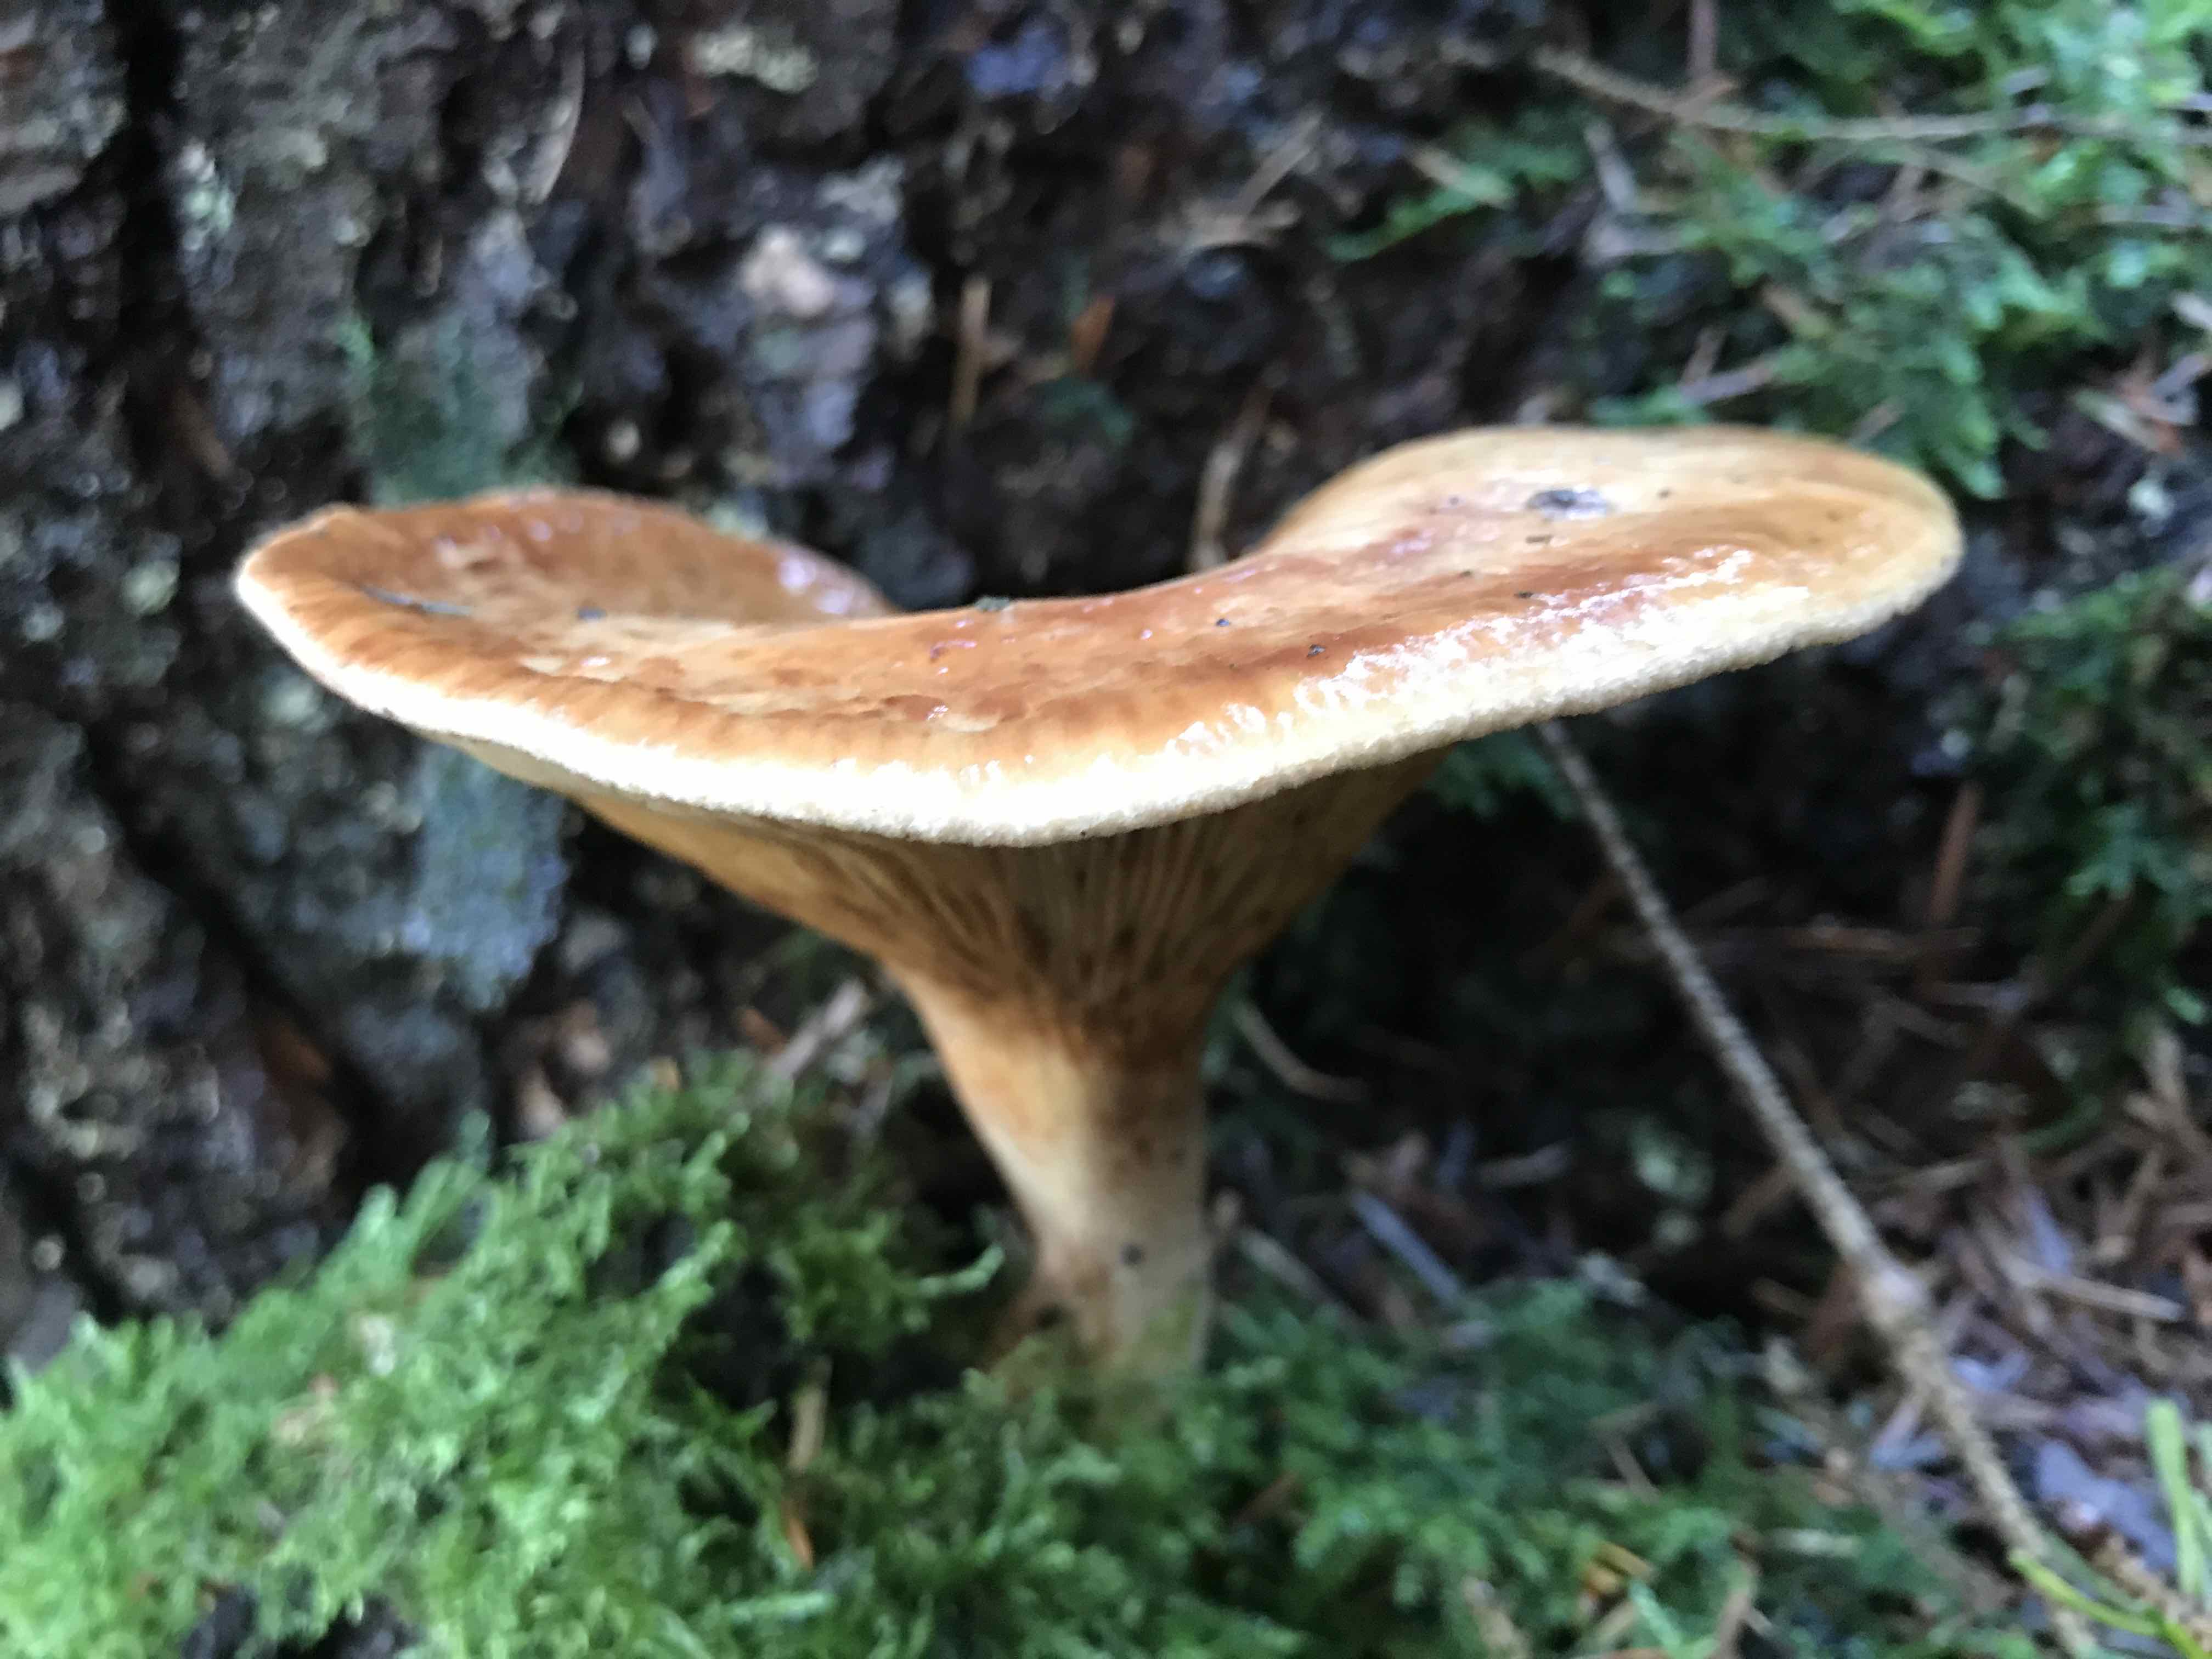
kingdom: Fungi
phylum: Basidiomycota
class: Agaricomycetes
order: Boletales
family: Paxillaceae
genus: Paxillus
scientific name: Paxillus involutus
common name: almindelig netbladhat
